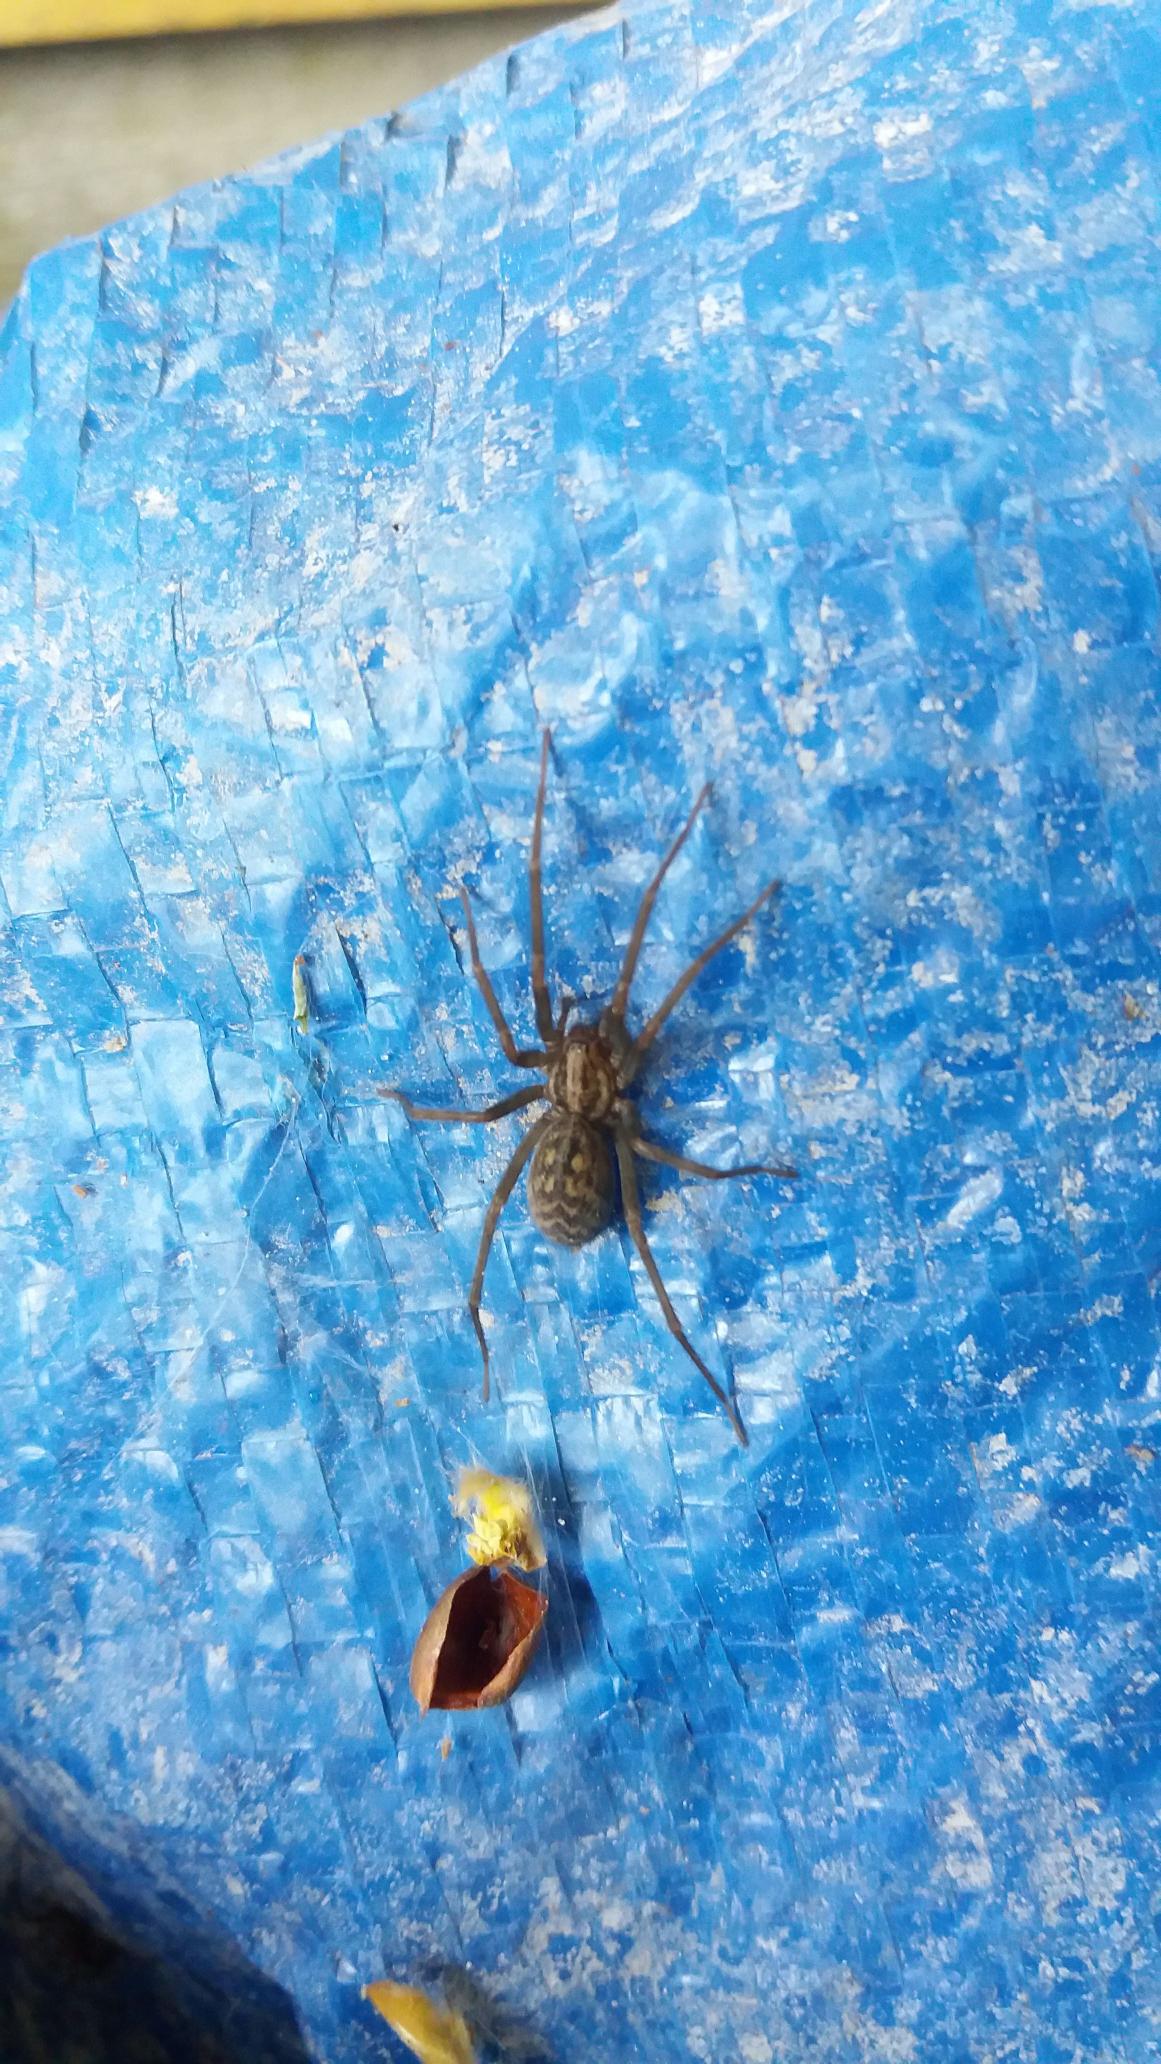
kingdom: Animalia
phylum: Arthropoda
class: Arachnida
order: Araneae
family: Agelenidae
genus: Eratigena
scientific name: Eratigena atrica
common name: Stor husedderkop
